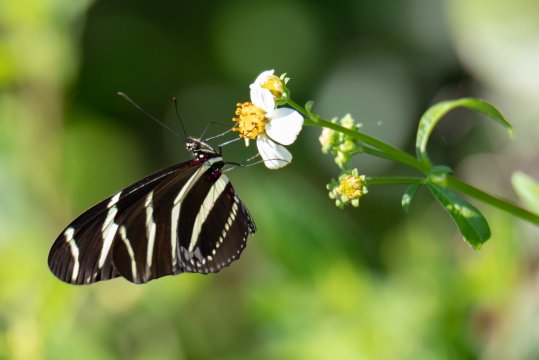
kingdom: Animalia
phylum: Arthropoda
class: Insecta
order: Lepidoptera
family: Nymphalidae
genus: Heliconius
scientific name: Heliconius charithonia
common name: Zebra Longwing
